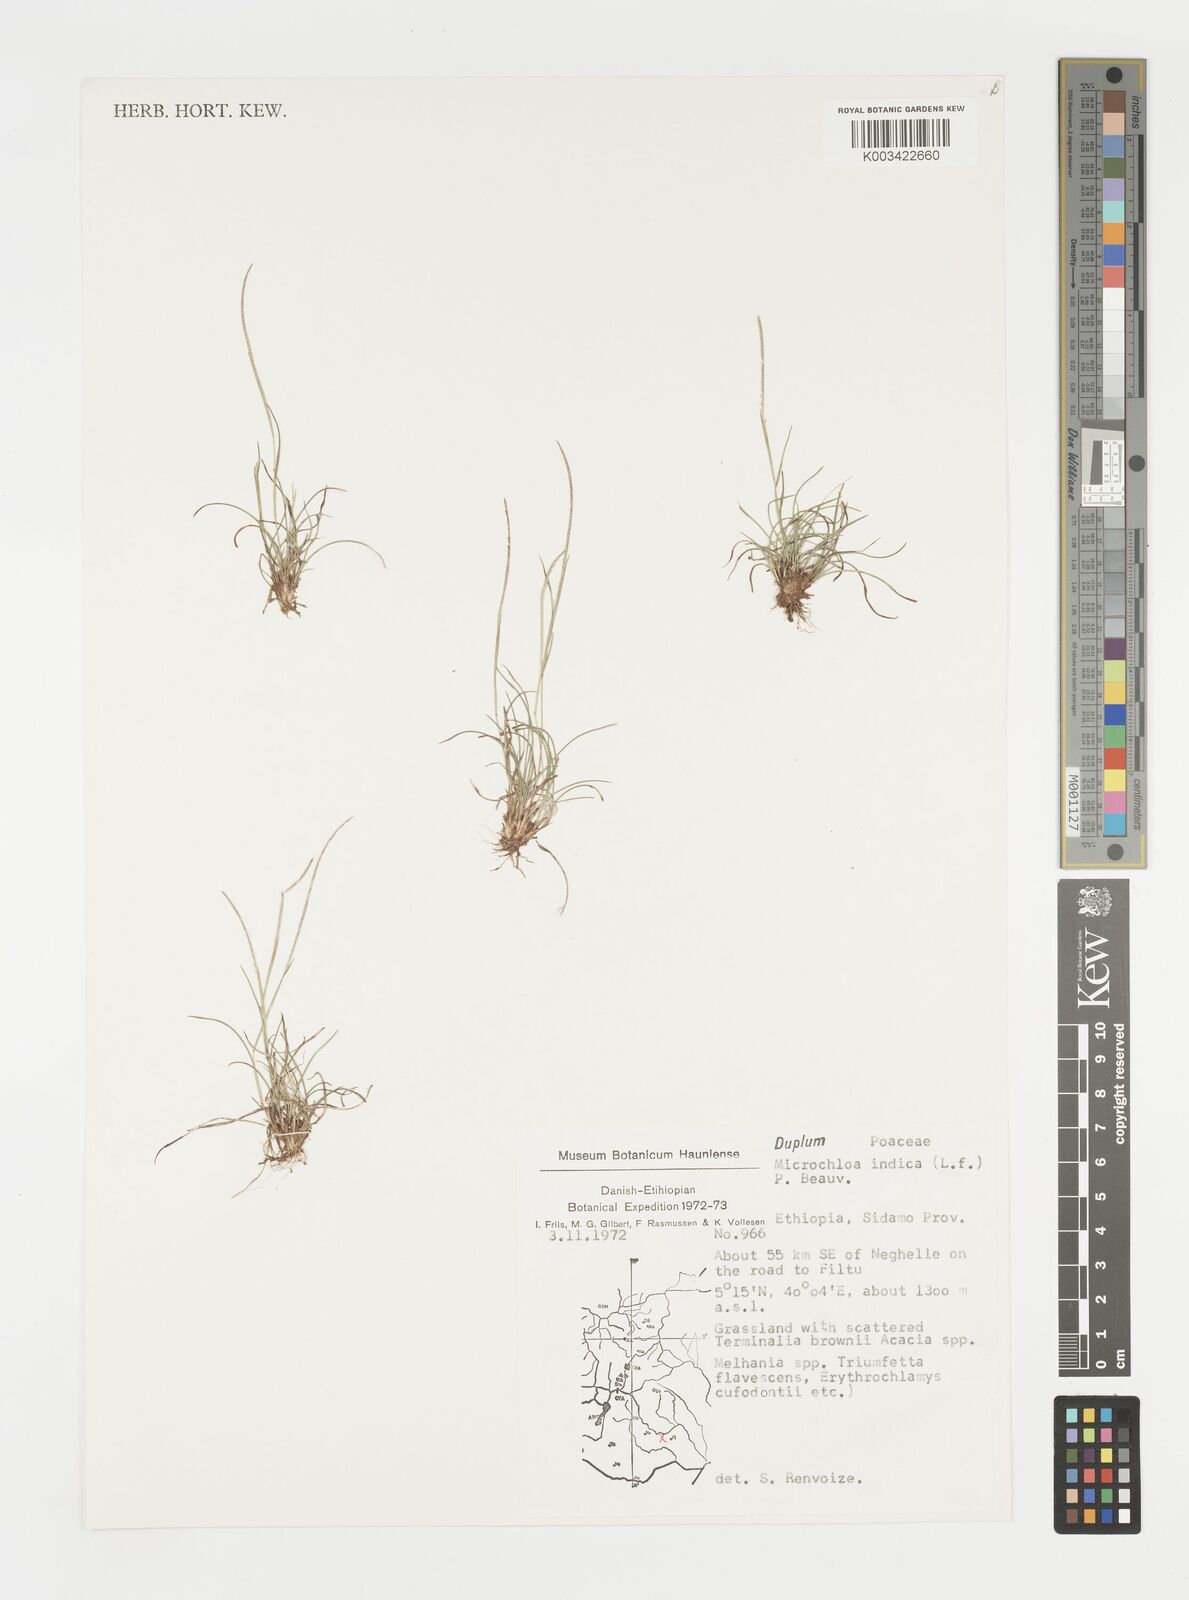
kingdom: Plantae
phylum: Tracheophyta
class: Liliopsida
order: Poales
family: Poaceae
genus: Microchloa
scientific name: Microchloa indica
